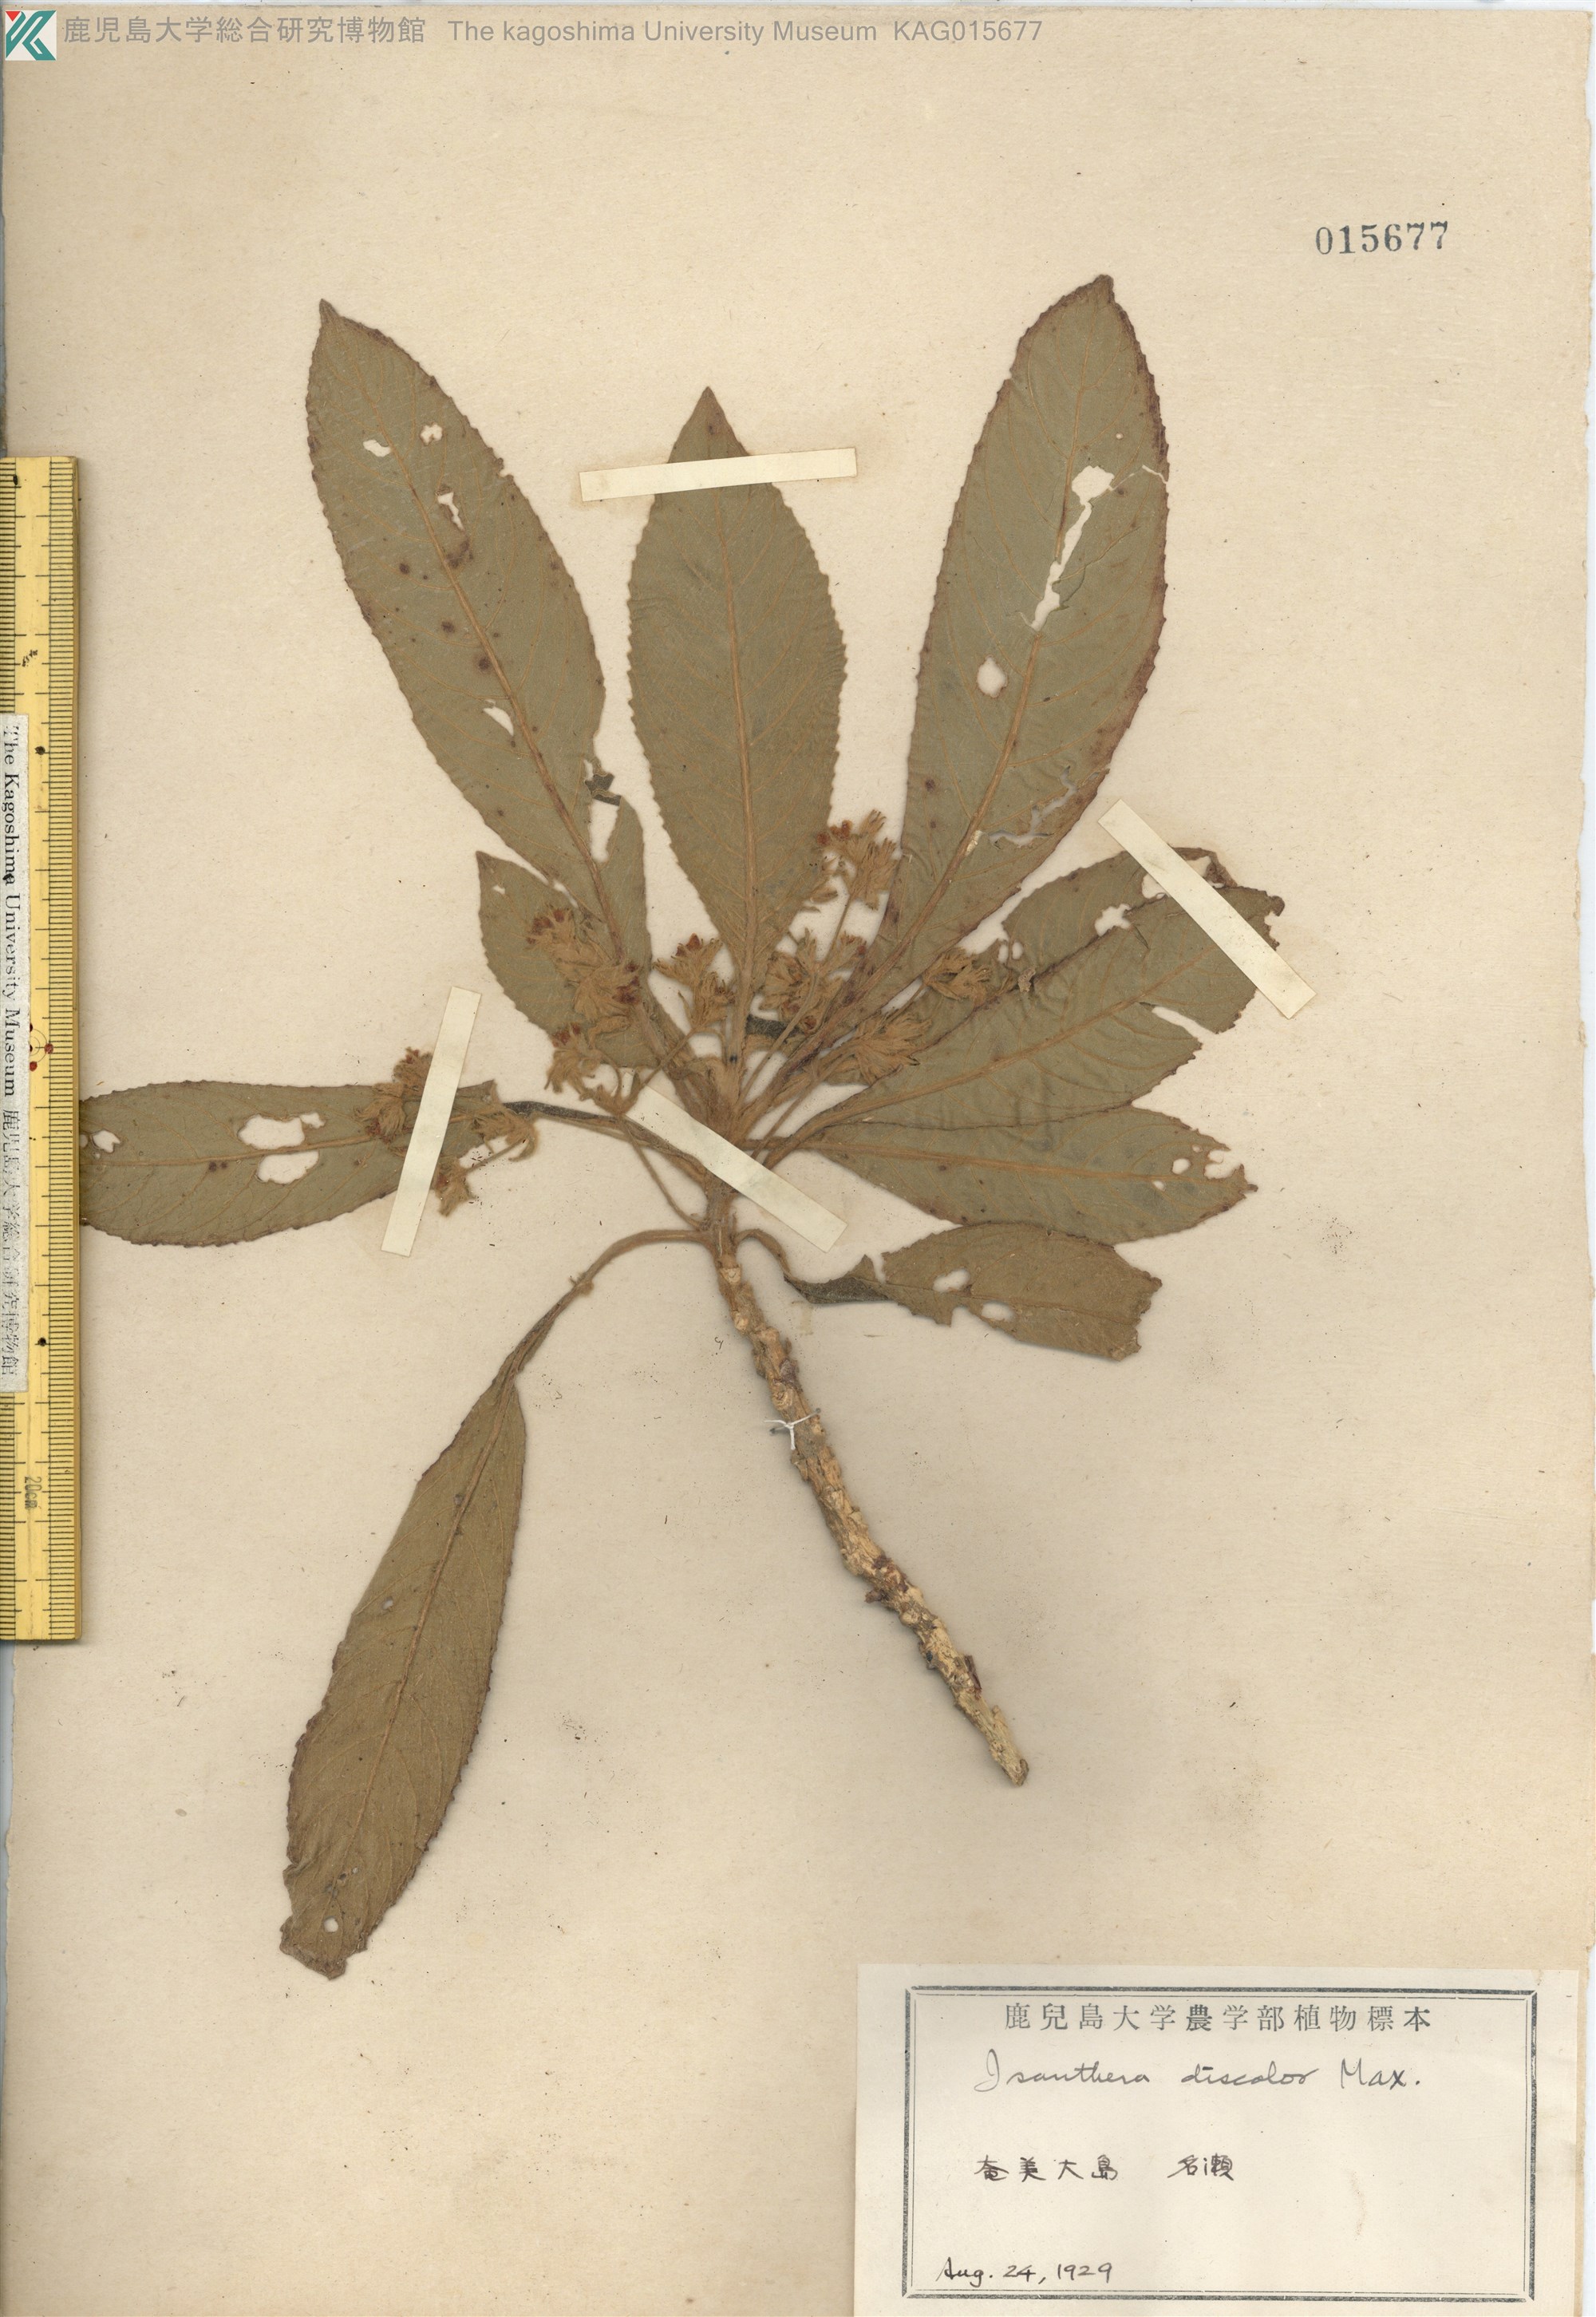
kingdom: Plantae
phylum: Tracheophyta
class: Magnoliopsida
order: Lamiales
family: Gesneriaceae
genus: Rhynchotechum
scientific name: Rhynchotechum discolor
